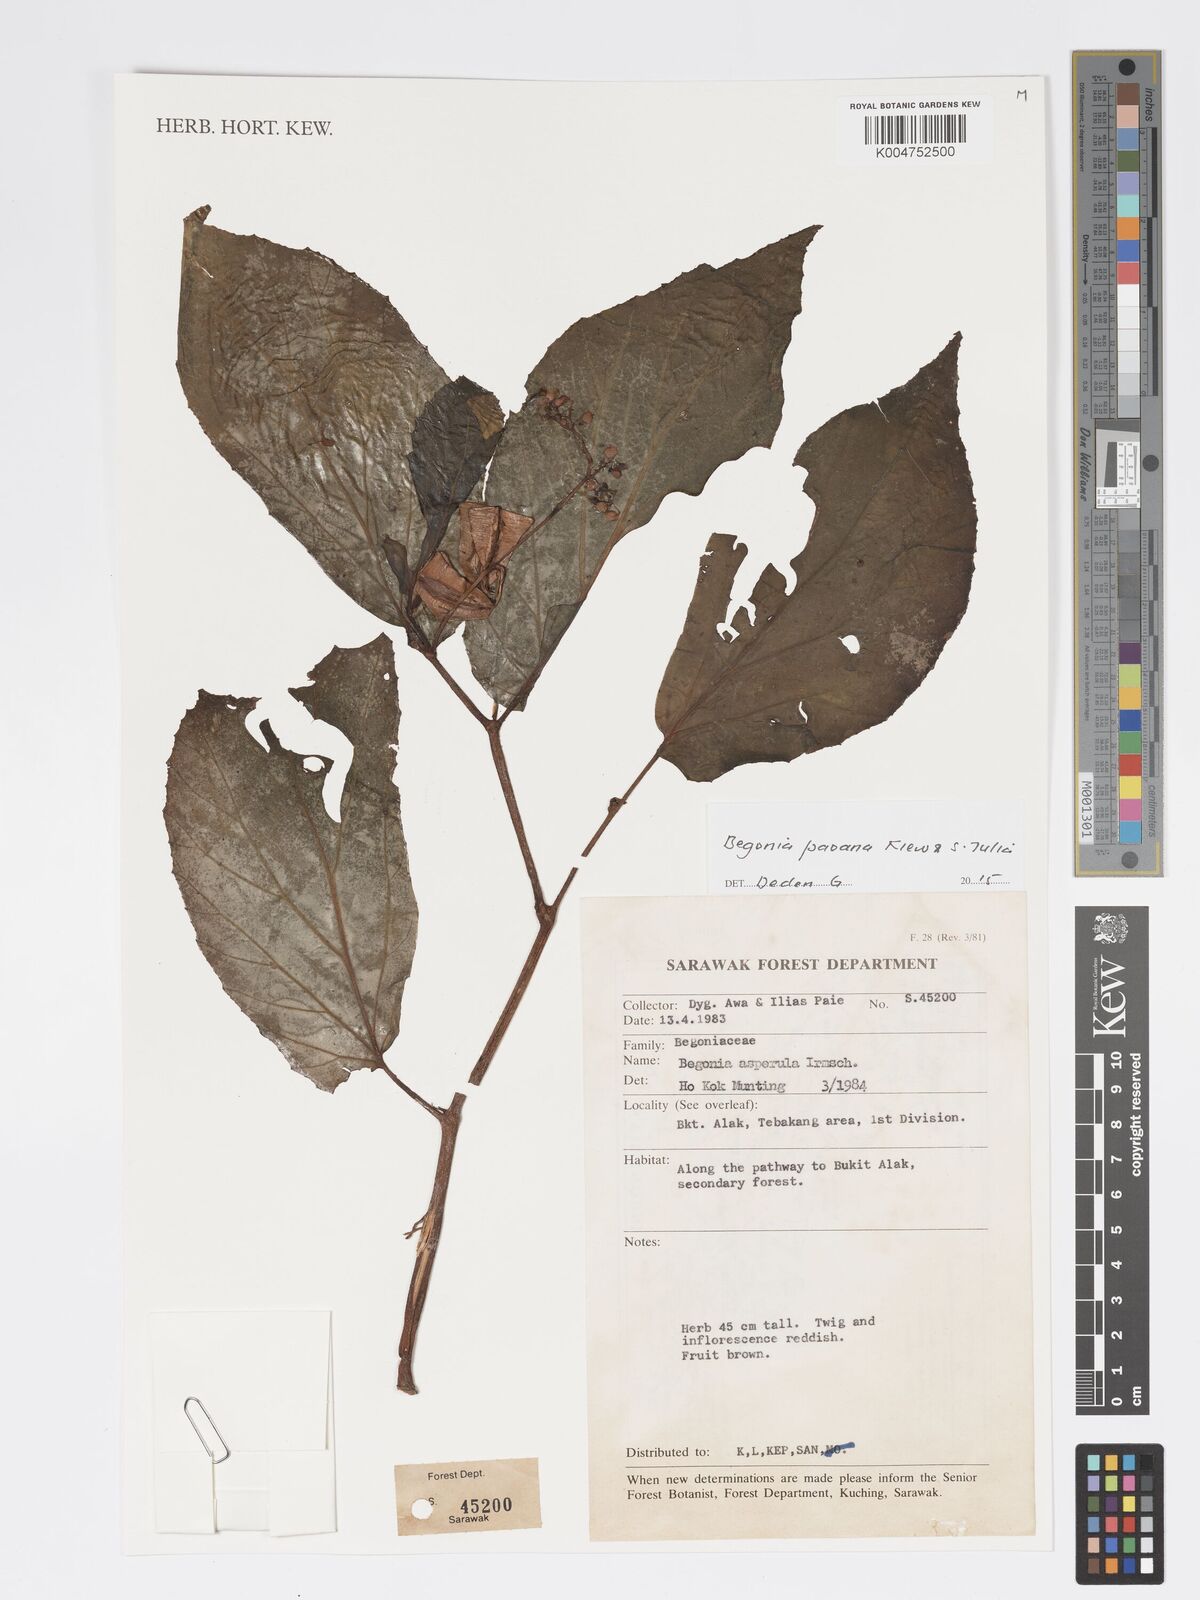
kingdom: Plantae
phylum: Tracheophyta
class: Magnoliopsida
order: Cucurbitales
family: Begoniaceae
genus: Begonia
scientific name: Begonia paoana
